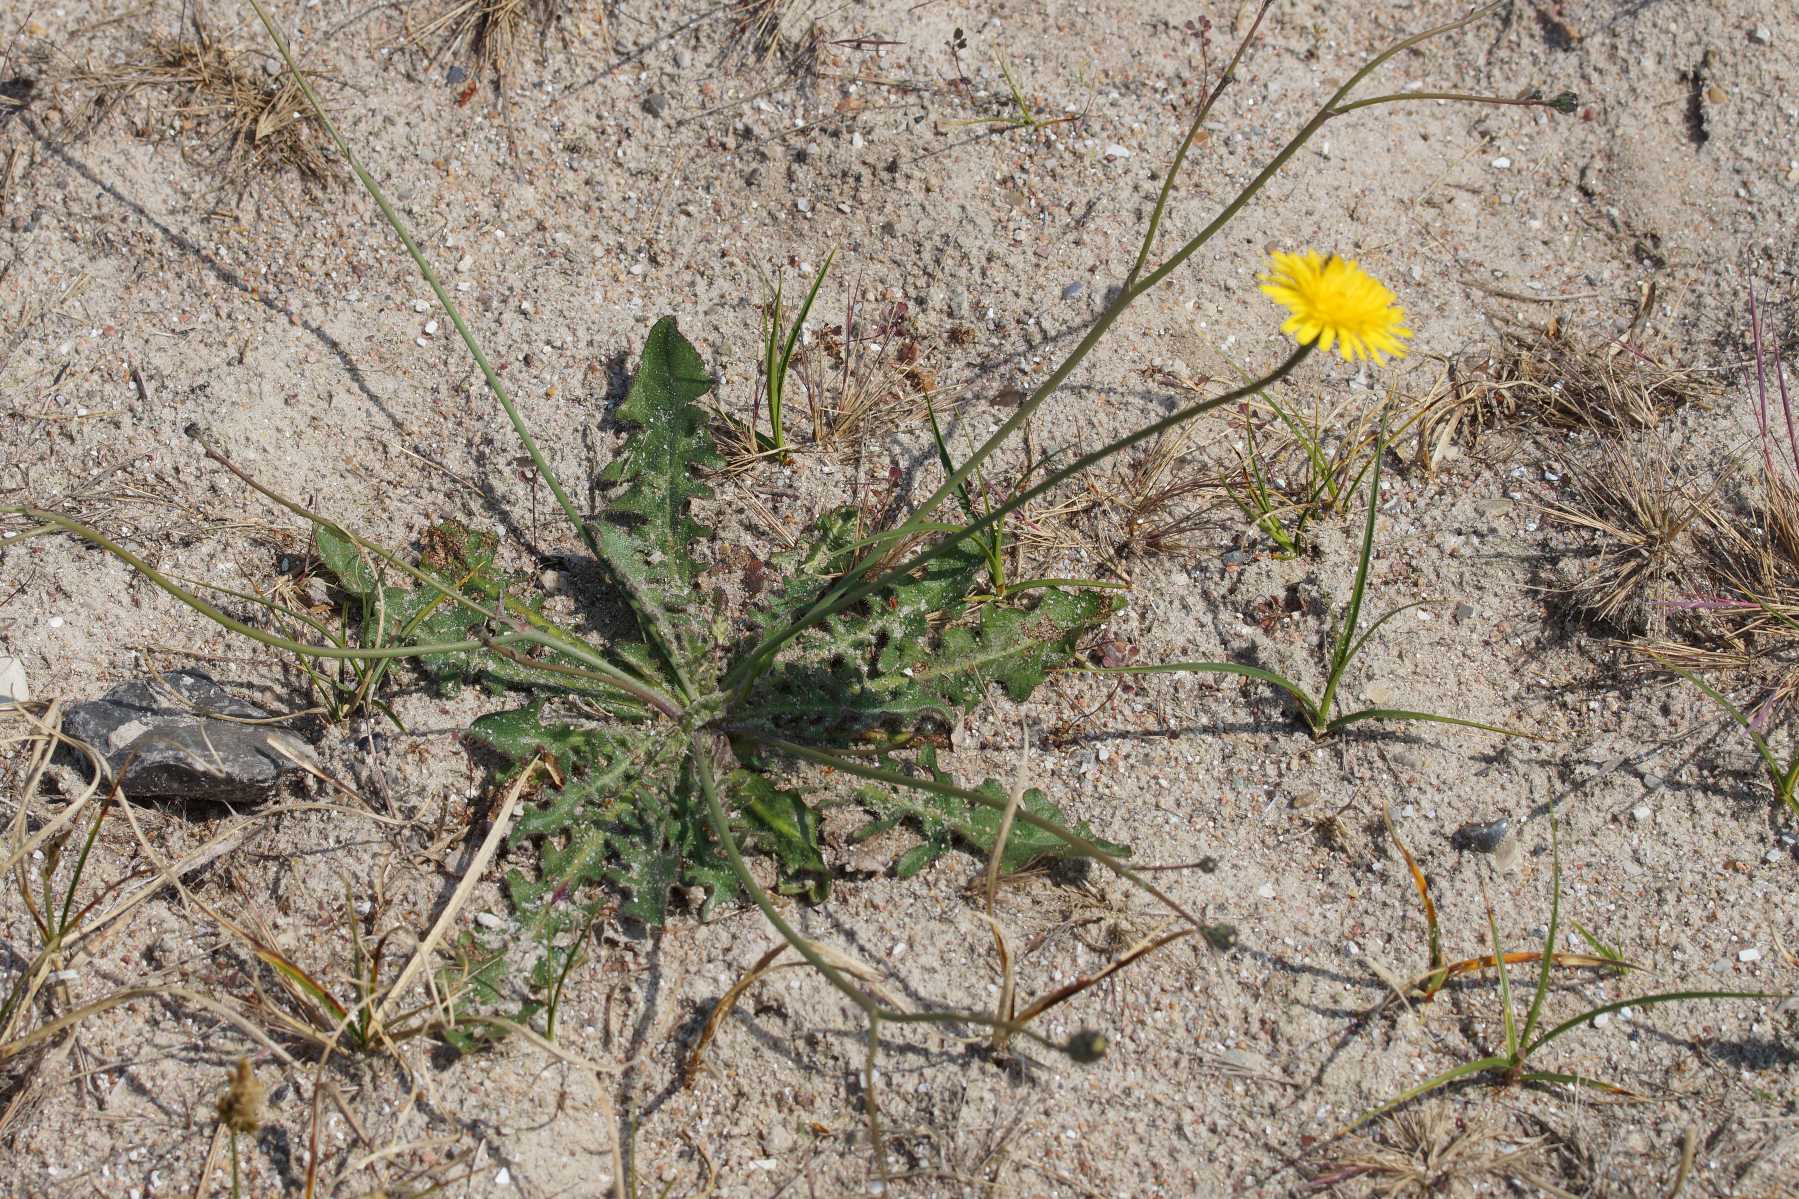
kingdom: Plantae
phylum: Tracheophyta
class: Magnoliopsida
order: Asterales
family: Asteraceae
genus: Hypochaeris
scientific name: Hypochaeris radicata
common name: Almindelig kongepen
